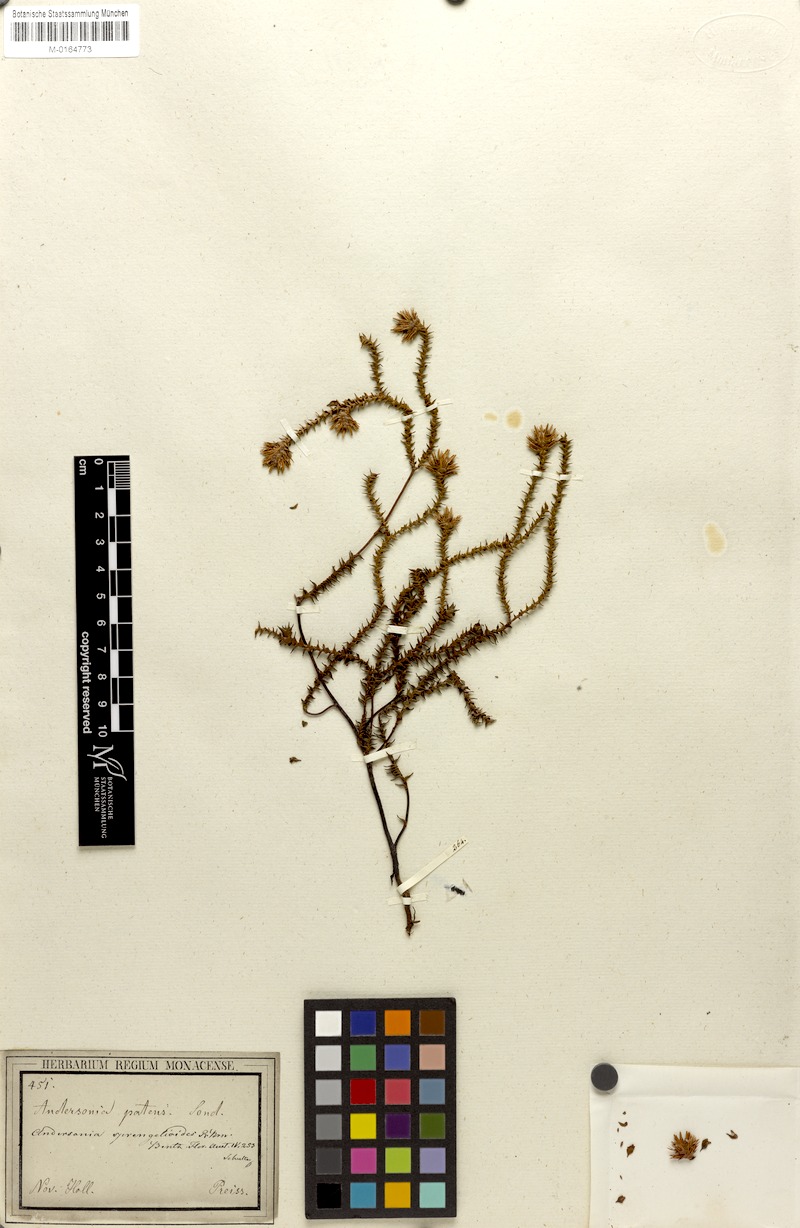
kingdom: Plantae
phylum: Tracheophyta
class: Magnoliopsida
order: Ericales
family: Ericaceae
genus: Andersonia
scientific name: Andersonia sprengelioides
